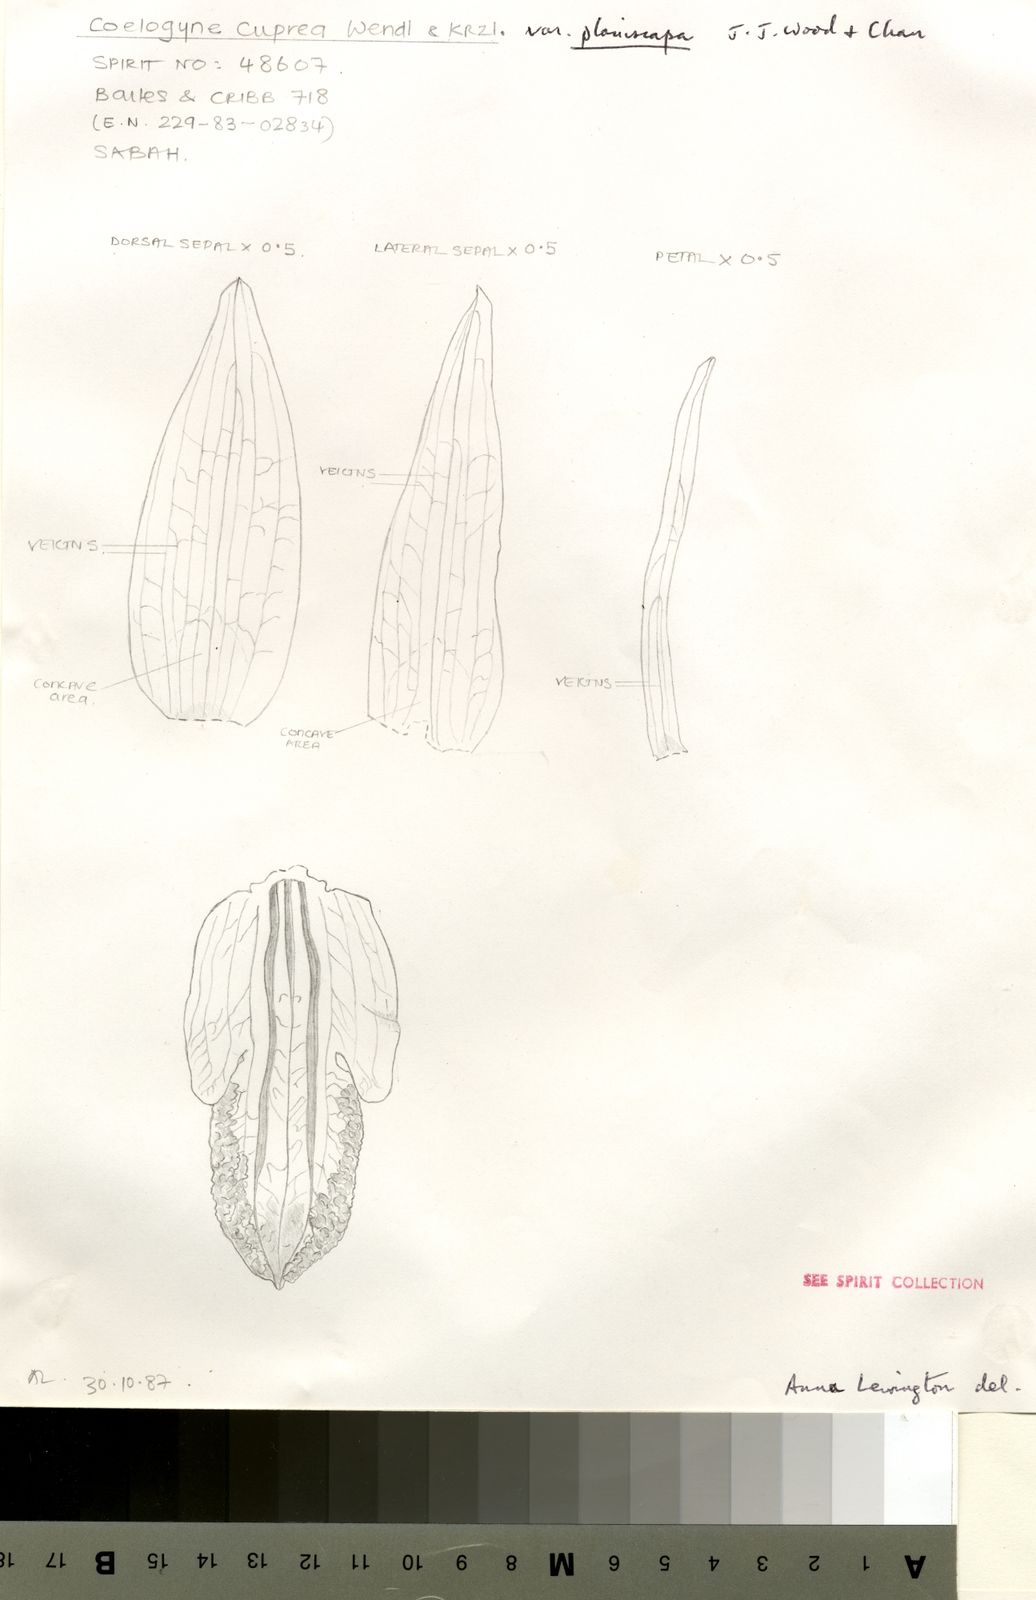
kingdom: Plantae
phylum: Tracheophyta
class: Liliopsida
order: Asparagales
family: Orchidaceae
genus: Coelogyne
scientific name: Coelogyne cuprea
